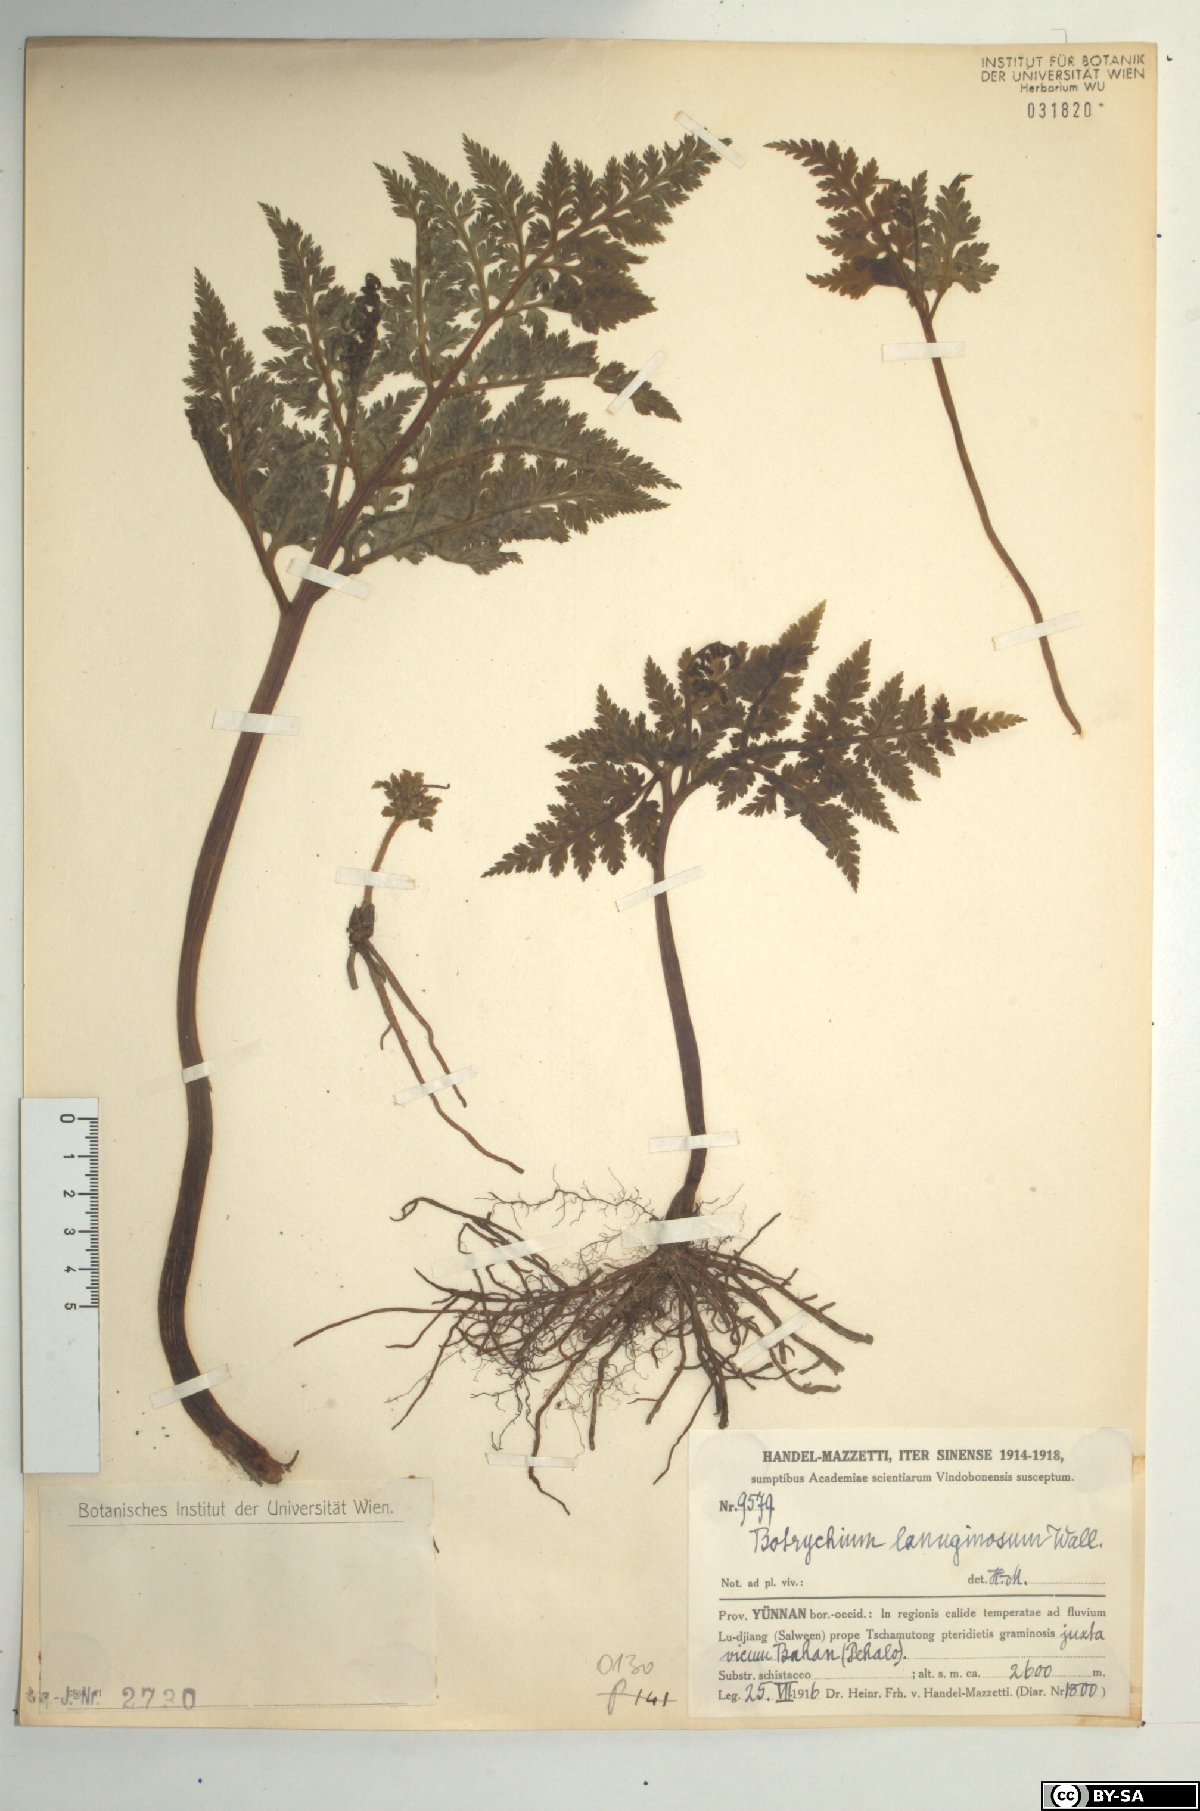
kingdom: Plantae
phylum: Tracheophyta
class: Polypodiopsida
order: Ophioglossales
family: Ophioglossaceae
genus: Japanobotrychum
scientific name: Japanobotrychum lanuginosum
